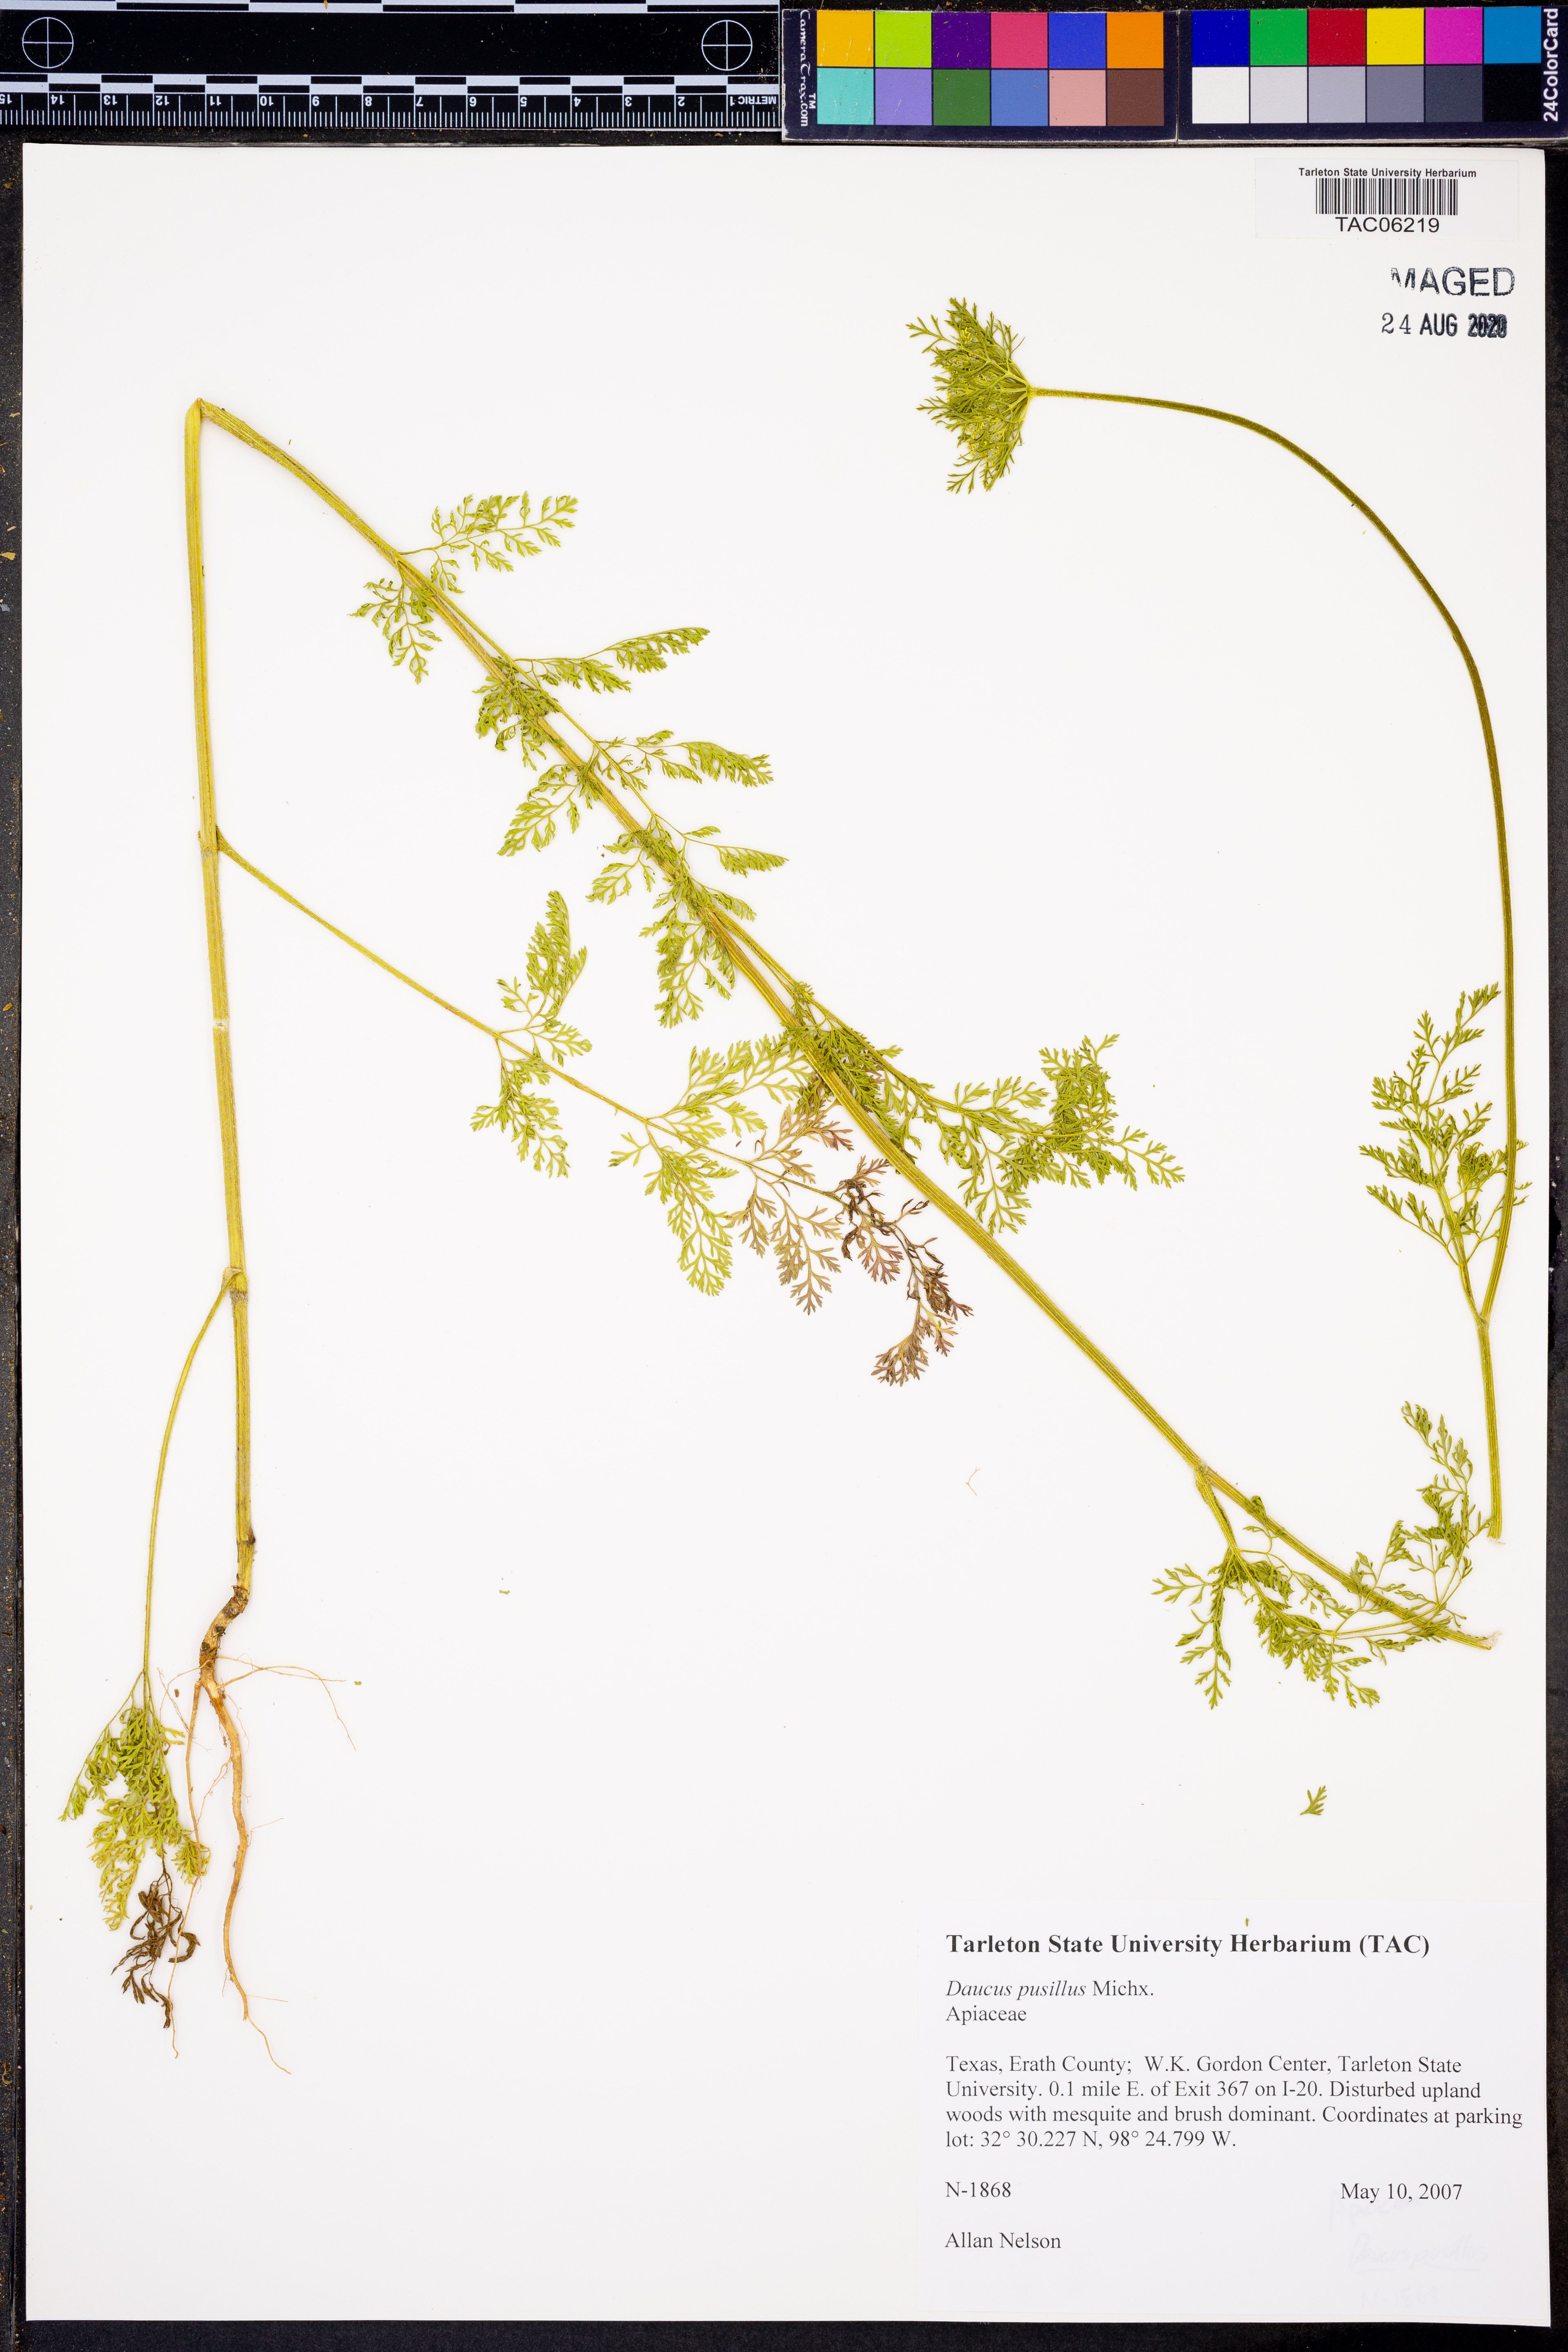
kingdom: Plantae
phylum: Tracheophyta
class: Magnoliopsida
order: Apiales
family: Apiaceae
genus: Daucus
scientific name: Daucus pusillus
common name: Southwest wild carrot
